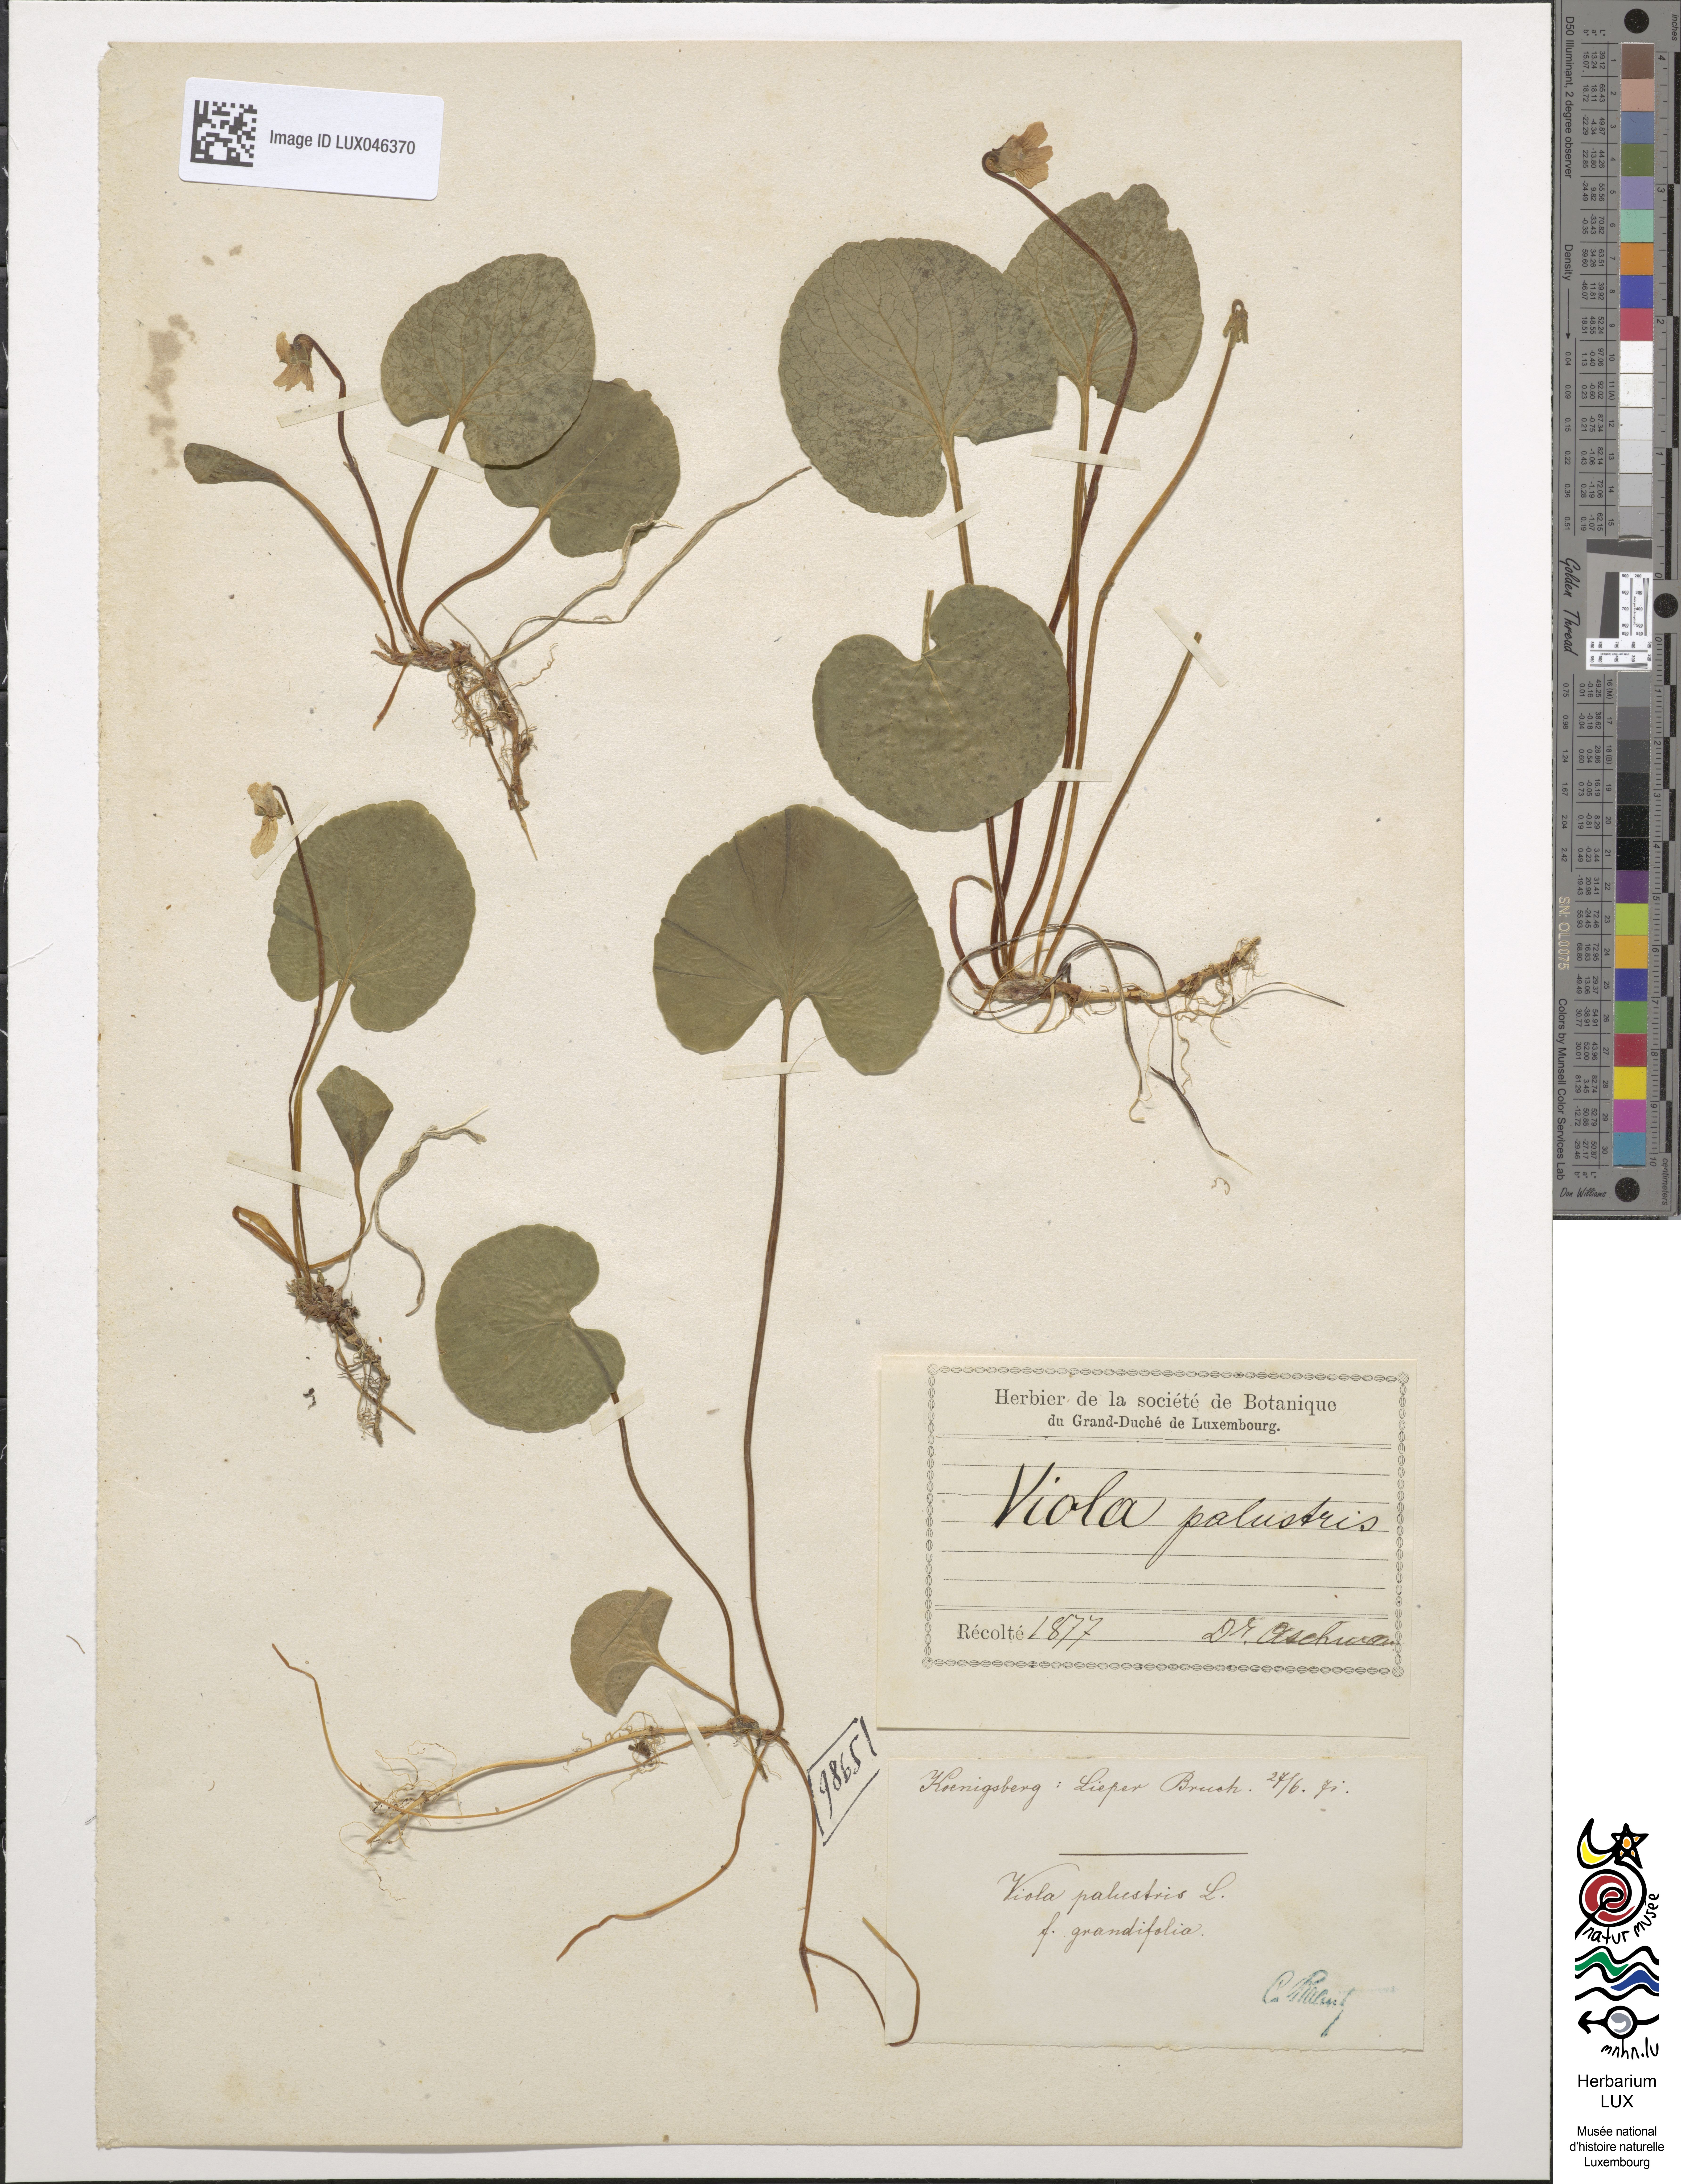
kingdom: Plantae
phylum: Tracheophyta
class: Magnoliopsida
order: Malpighiales
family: Violaceae
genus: Viola
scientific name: Viola palustris
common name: Marsh violet
